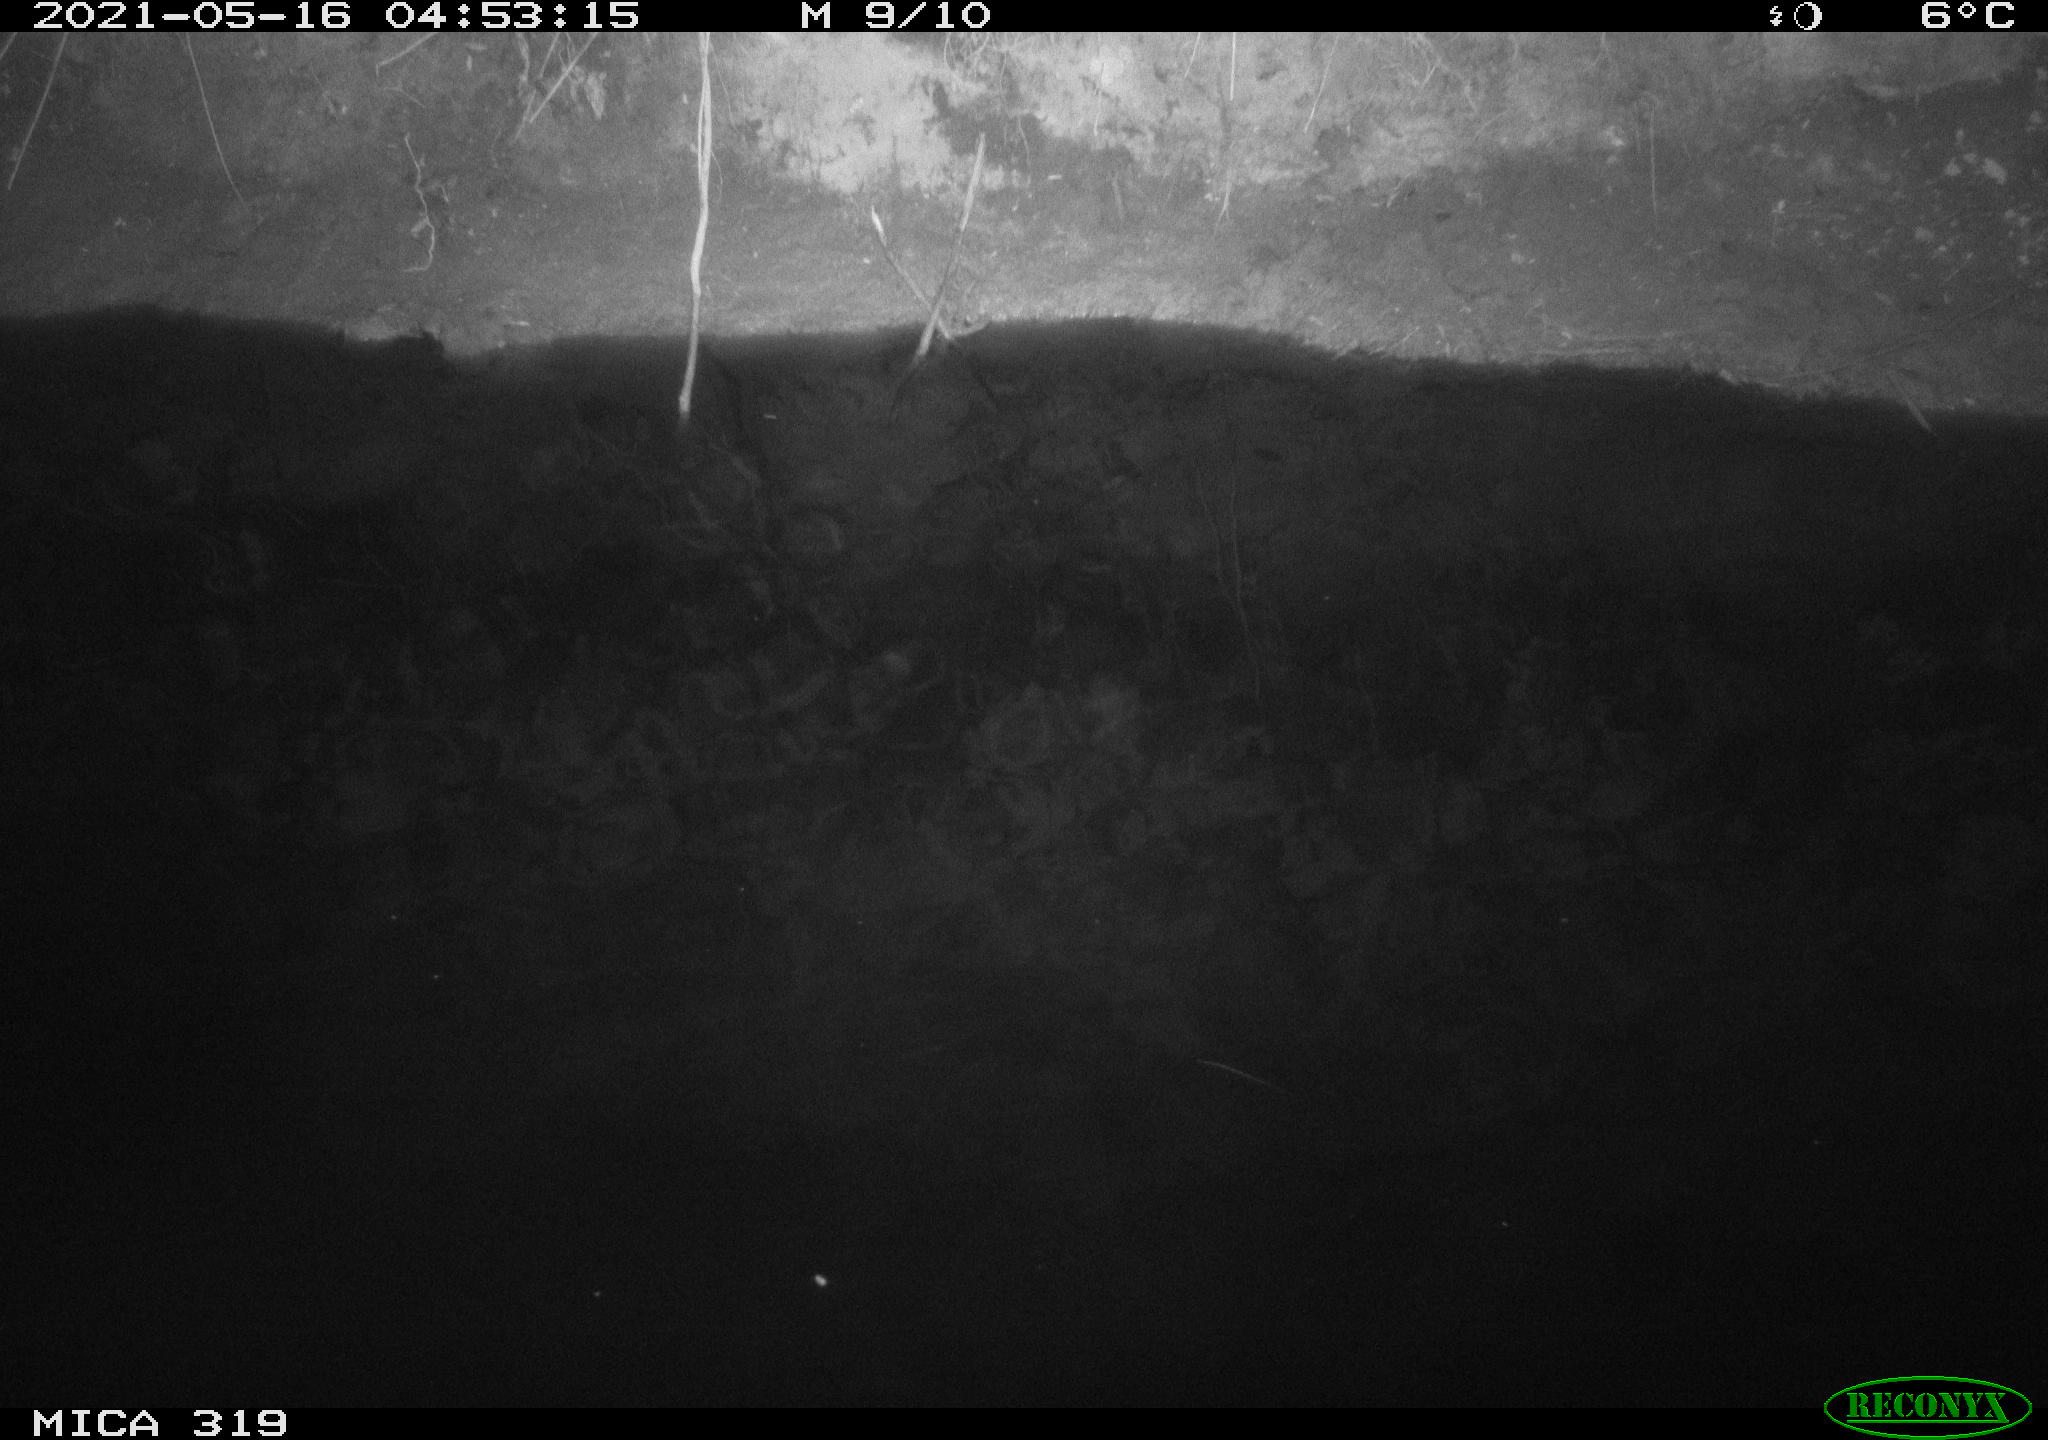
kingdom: Animalia
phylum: Chordata
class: Aves
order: Anseriformes
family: Anatidae
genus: Anas
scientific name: Anas platyrhynchos
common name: Mallard
